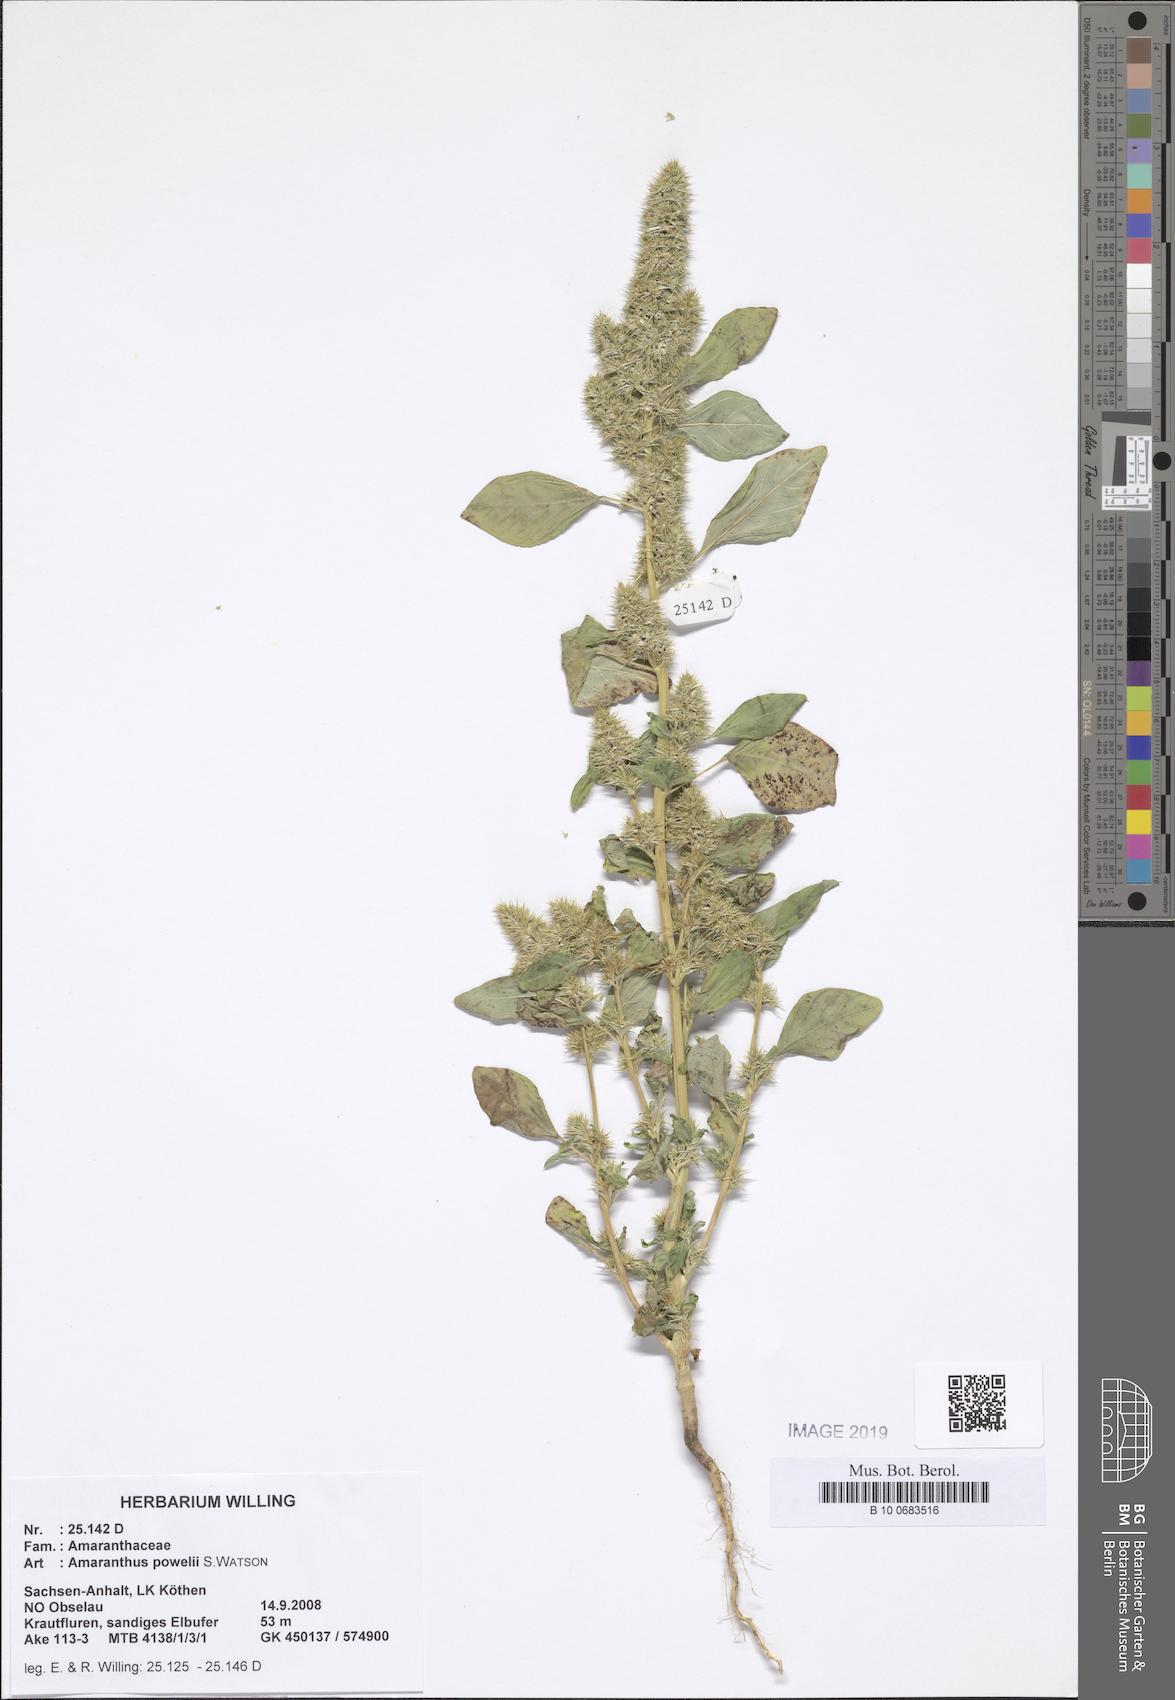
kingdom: Plantae
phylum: Tracheophyta
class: Magnoliopsida
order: Caryophyllales
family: Amaranthaceae
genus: Amaranthus
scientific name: Amaranthus powellii
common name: Powell's amaranth
